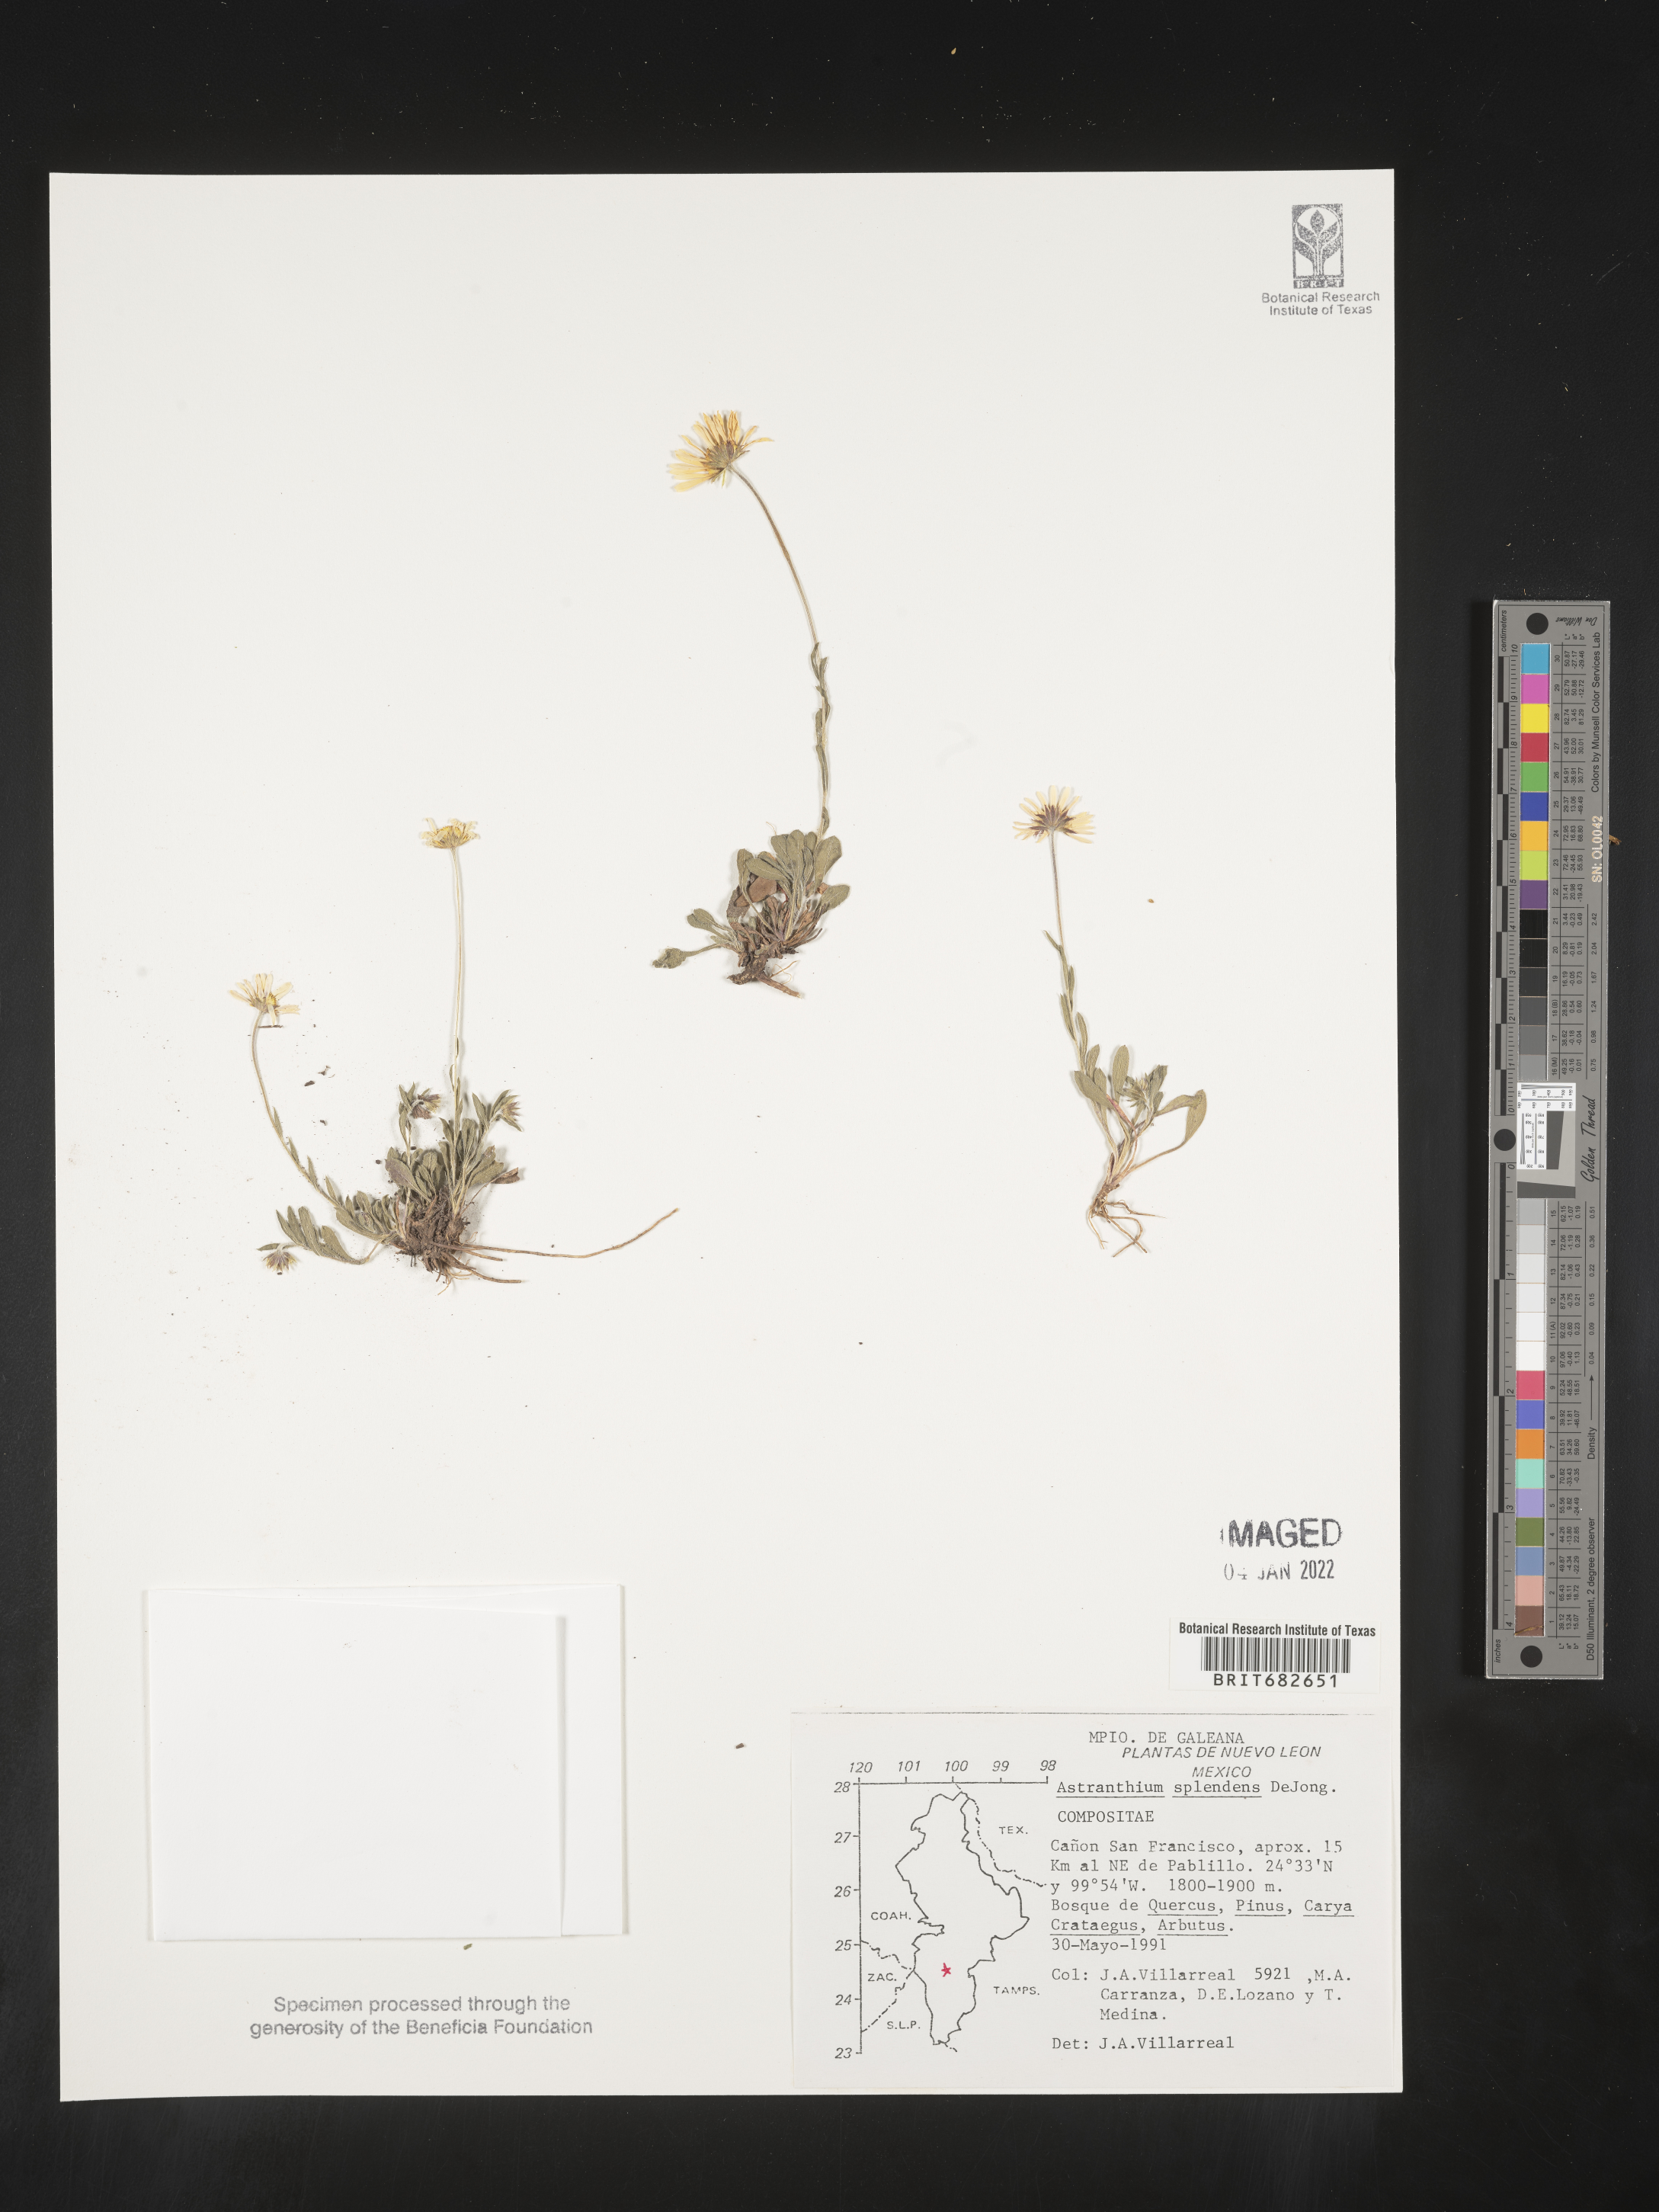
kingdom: Plantae
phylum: Tracheophyta
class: Magnoliopsida
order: Asterales
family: Asteraceae
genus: Astranthium
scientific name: Astranthium
